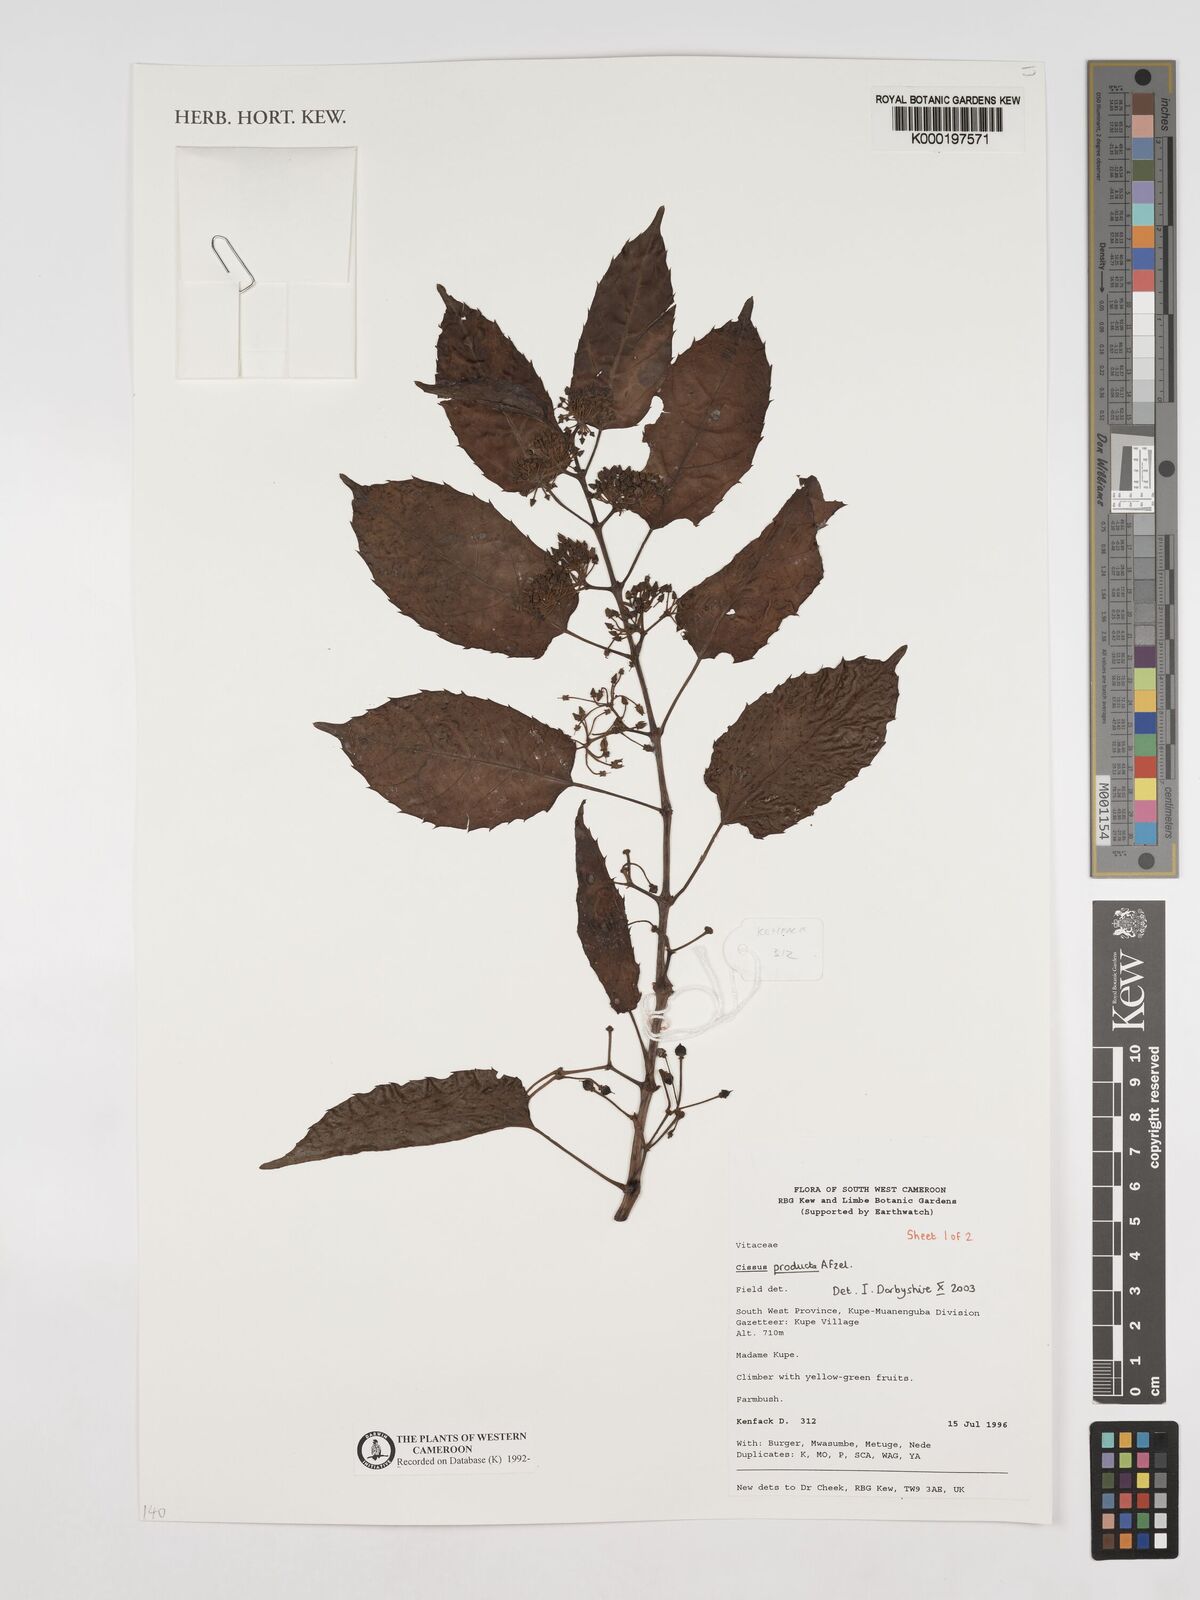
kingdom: Plantae
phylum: Tracheophyta
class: Magnoliopsida
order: Vitales
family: Vitaceae
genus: Cissus
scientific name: Cissus producta
